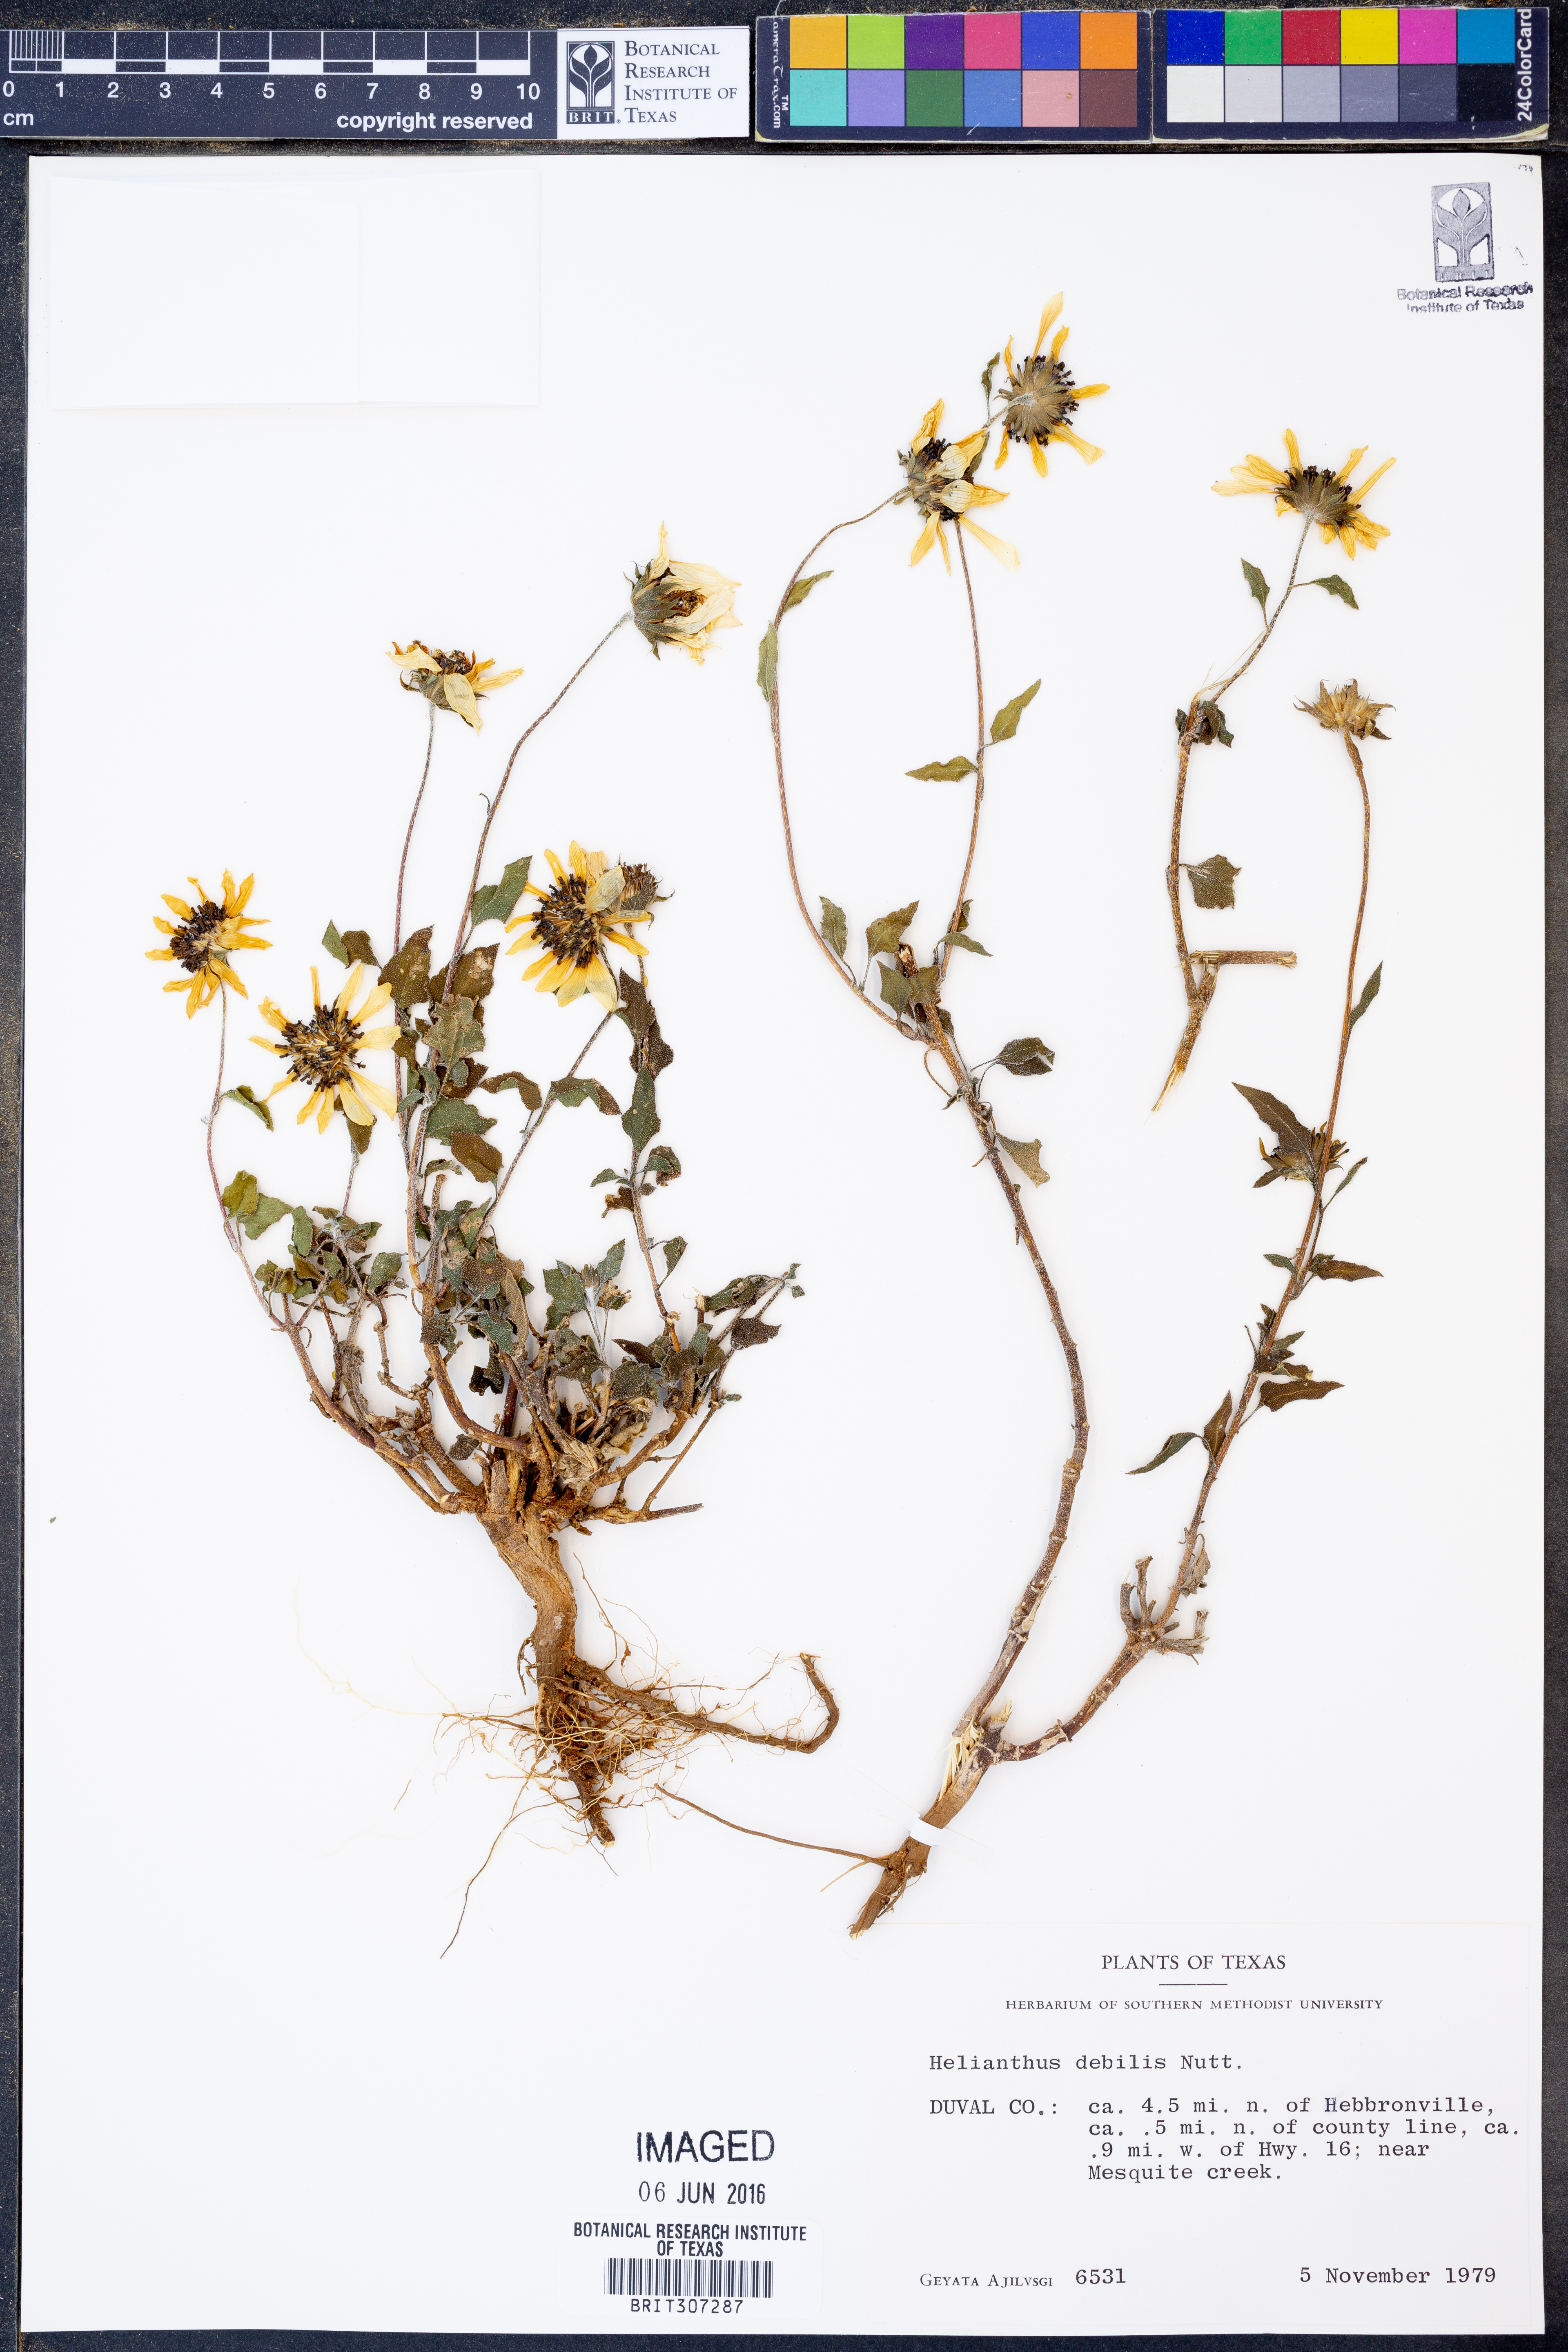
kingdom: Plantae
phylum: Tracheophyta
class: Magnoliopsida
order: Asterales
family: Asteraceae
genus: Helianthus
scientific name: Helianthus debilis
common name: Weak sunflower
